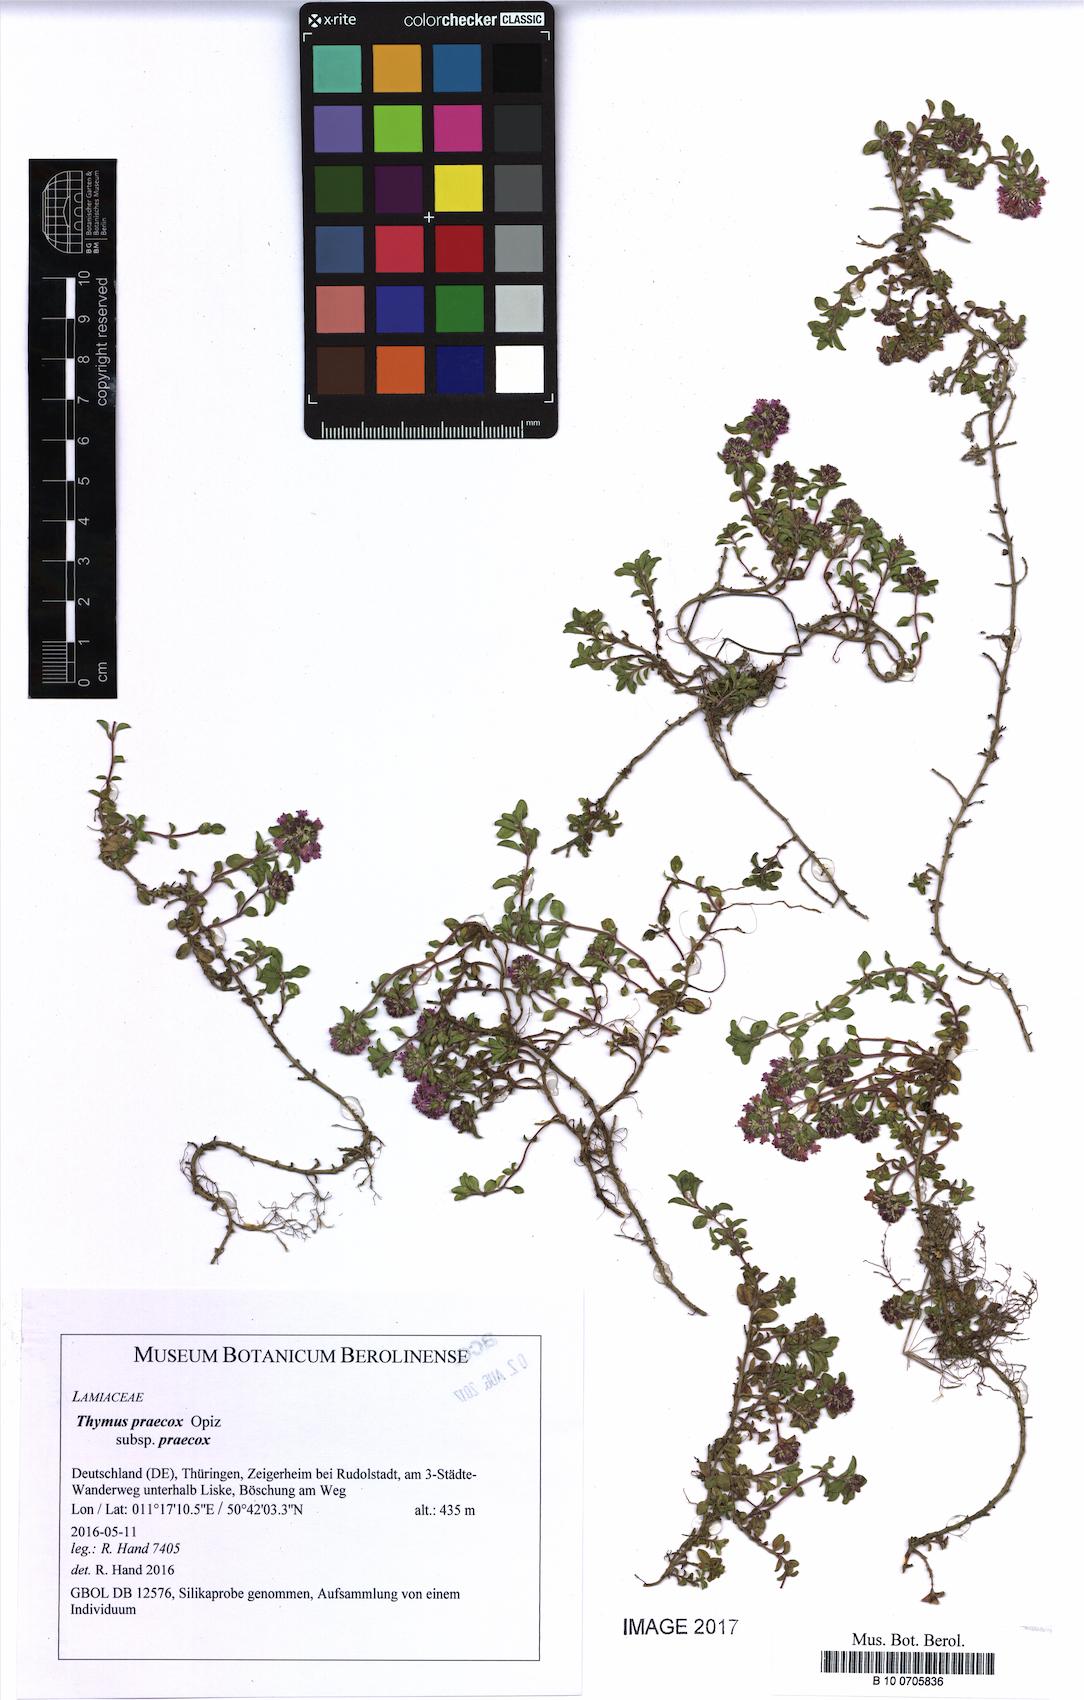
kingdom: Plantae
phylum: Tracheophyta
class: Magnoliopsida
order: Lamiales
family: Lamiaceae
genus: Thymus
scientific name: Thymus praecox
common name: Wild thyme
